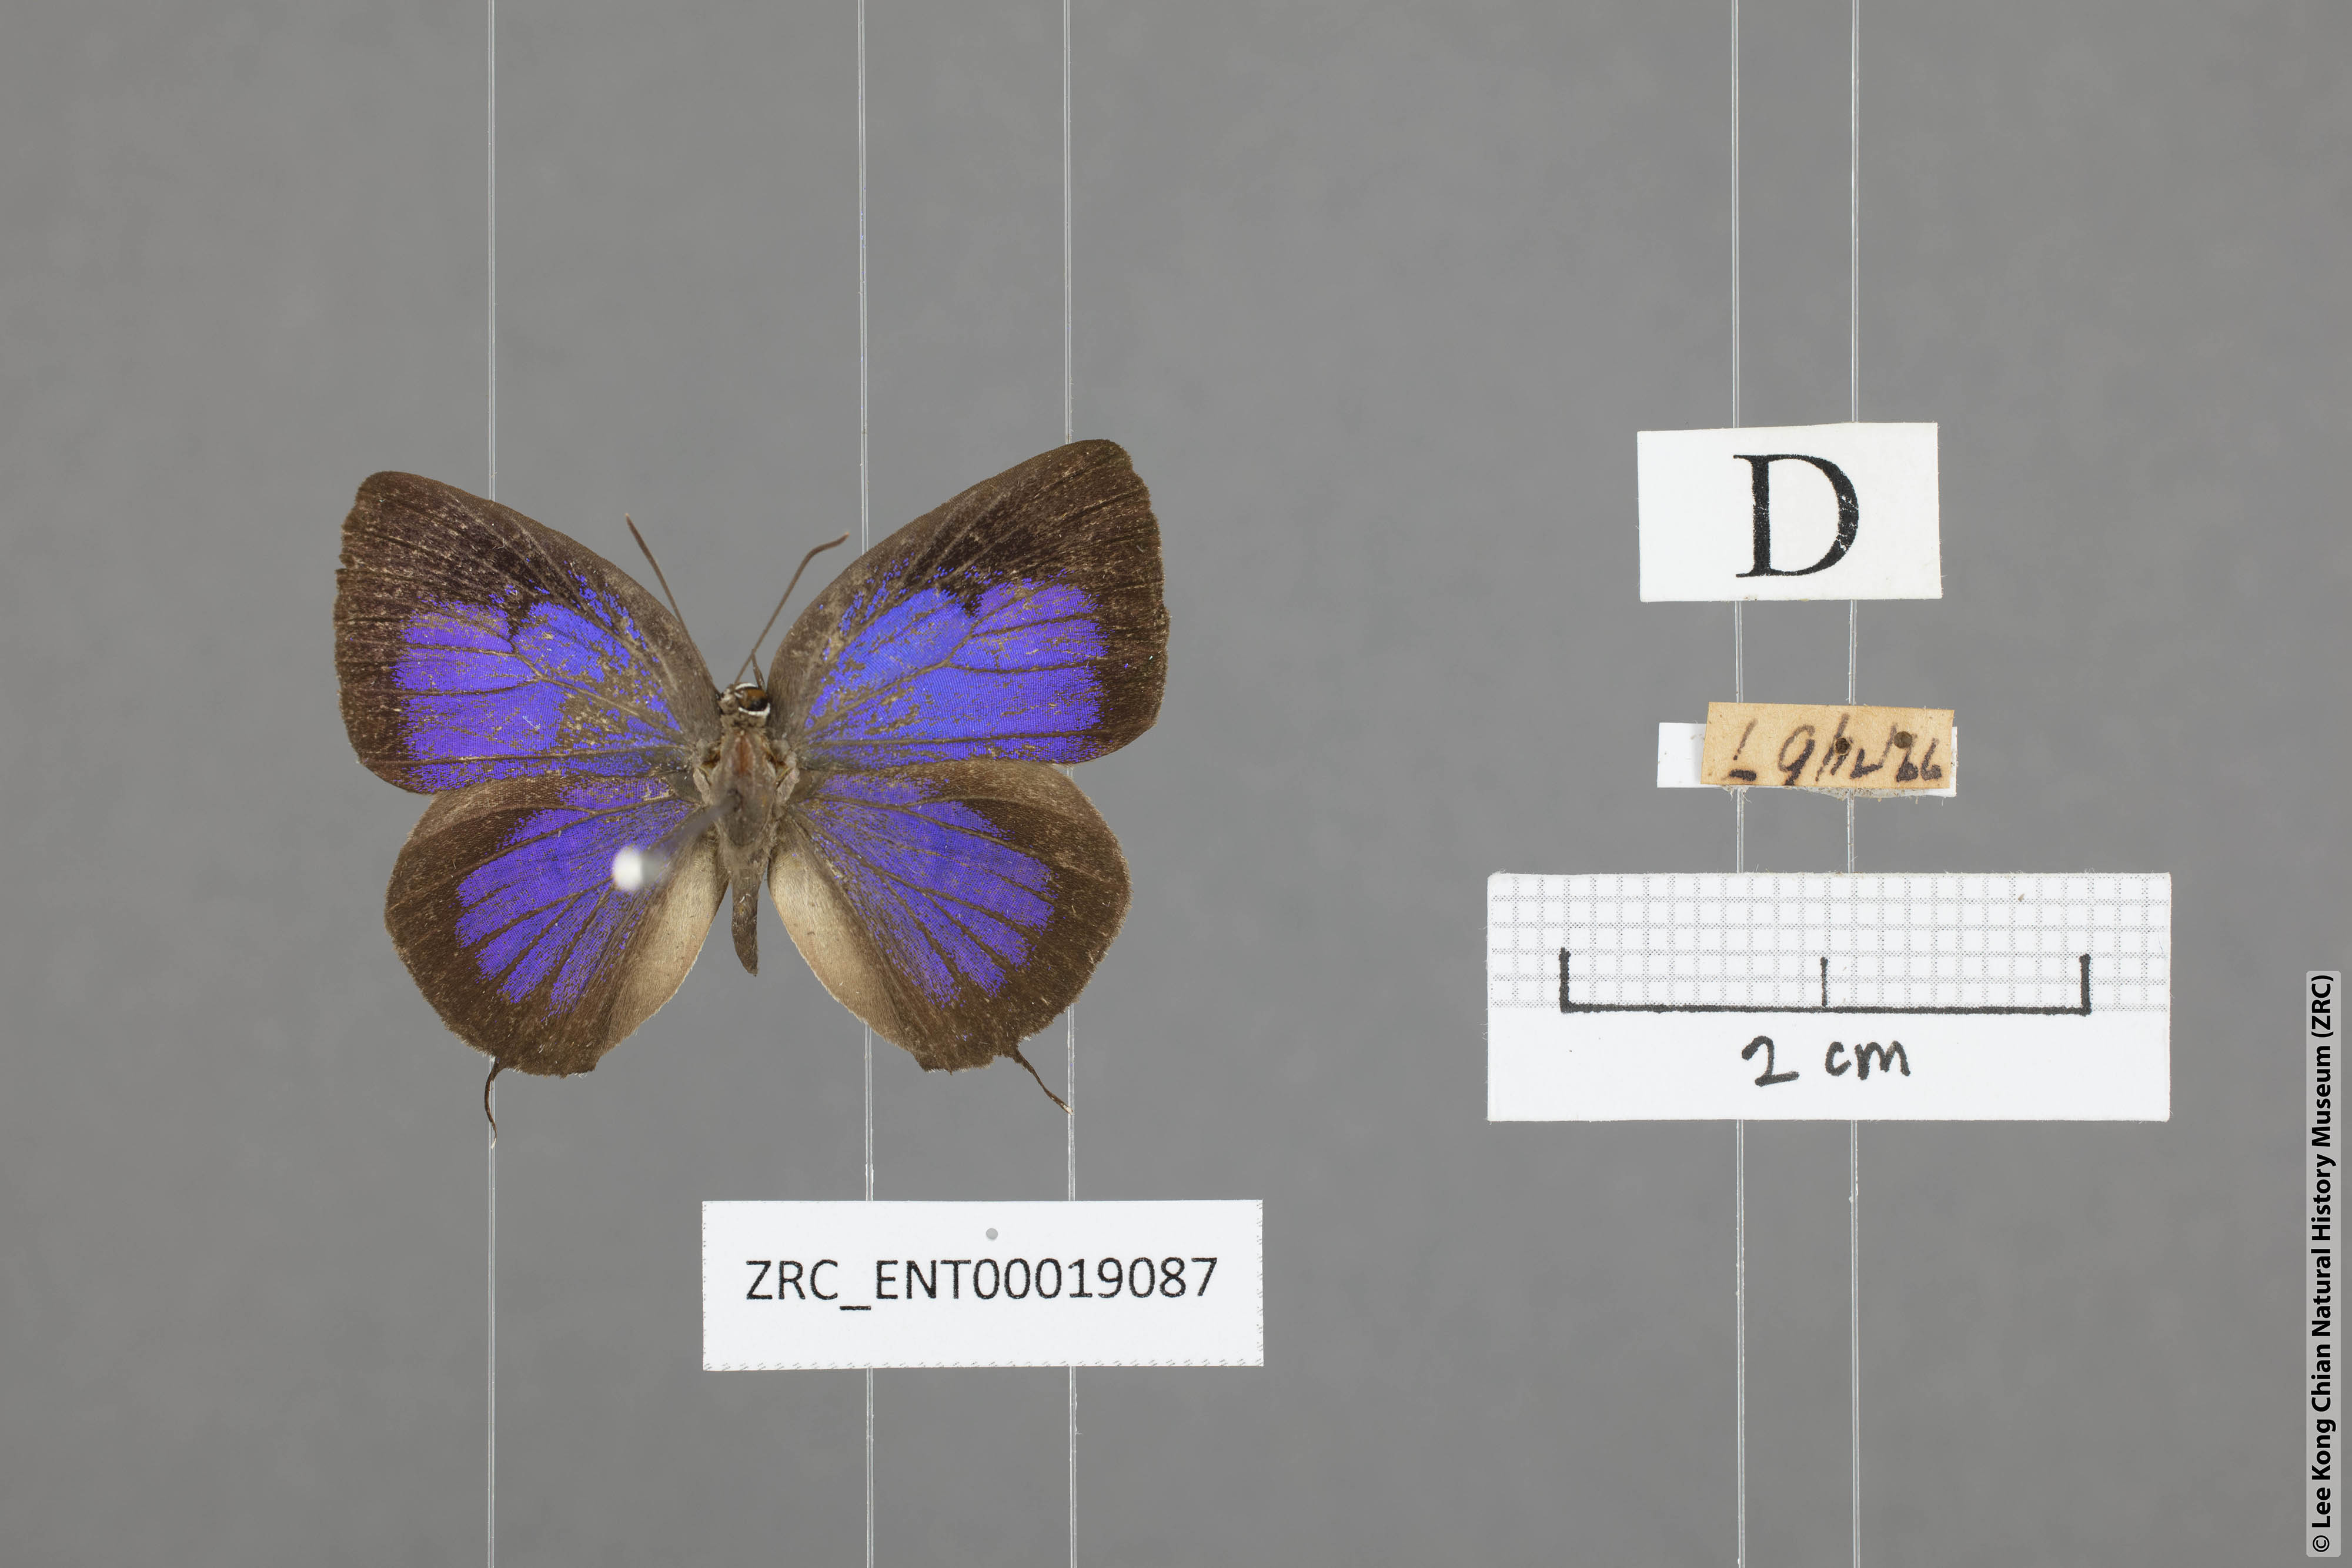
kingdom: Animalia
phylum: Arthropoda
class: Insecta
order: Lepidoptera
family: Lycaenidae
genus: Arhopala
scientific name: Arhopala alitaeus
